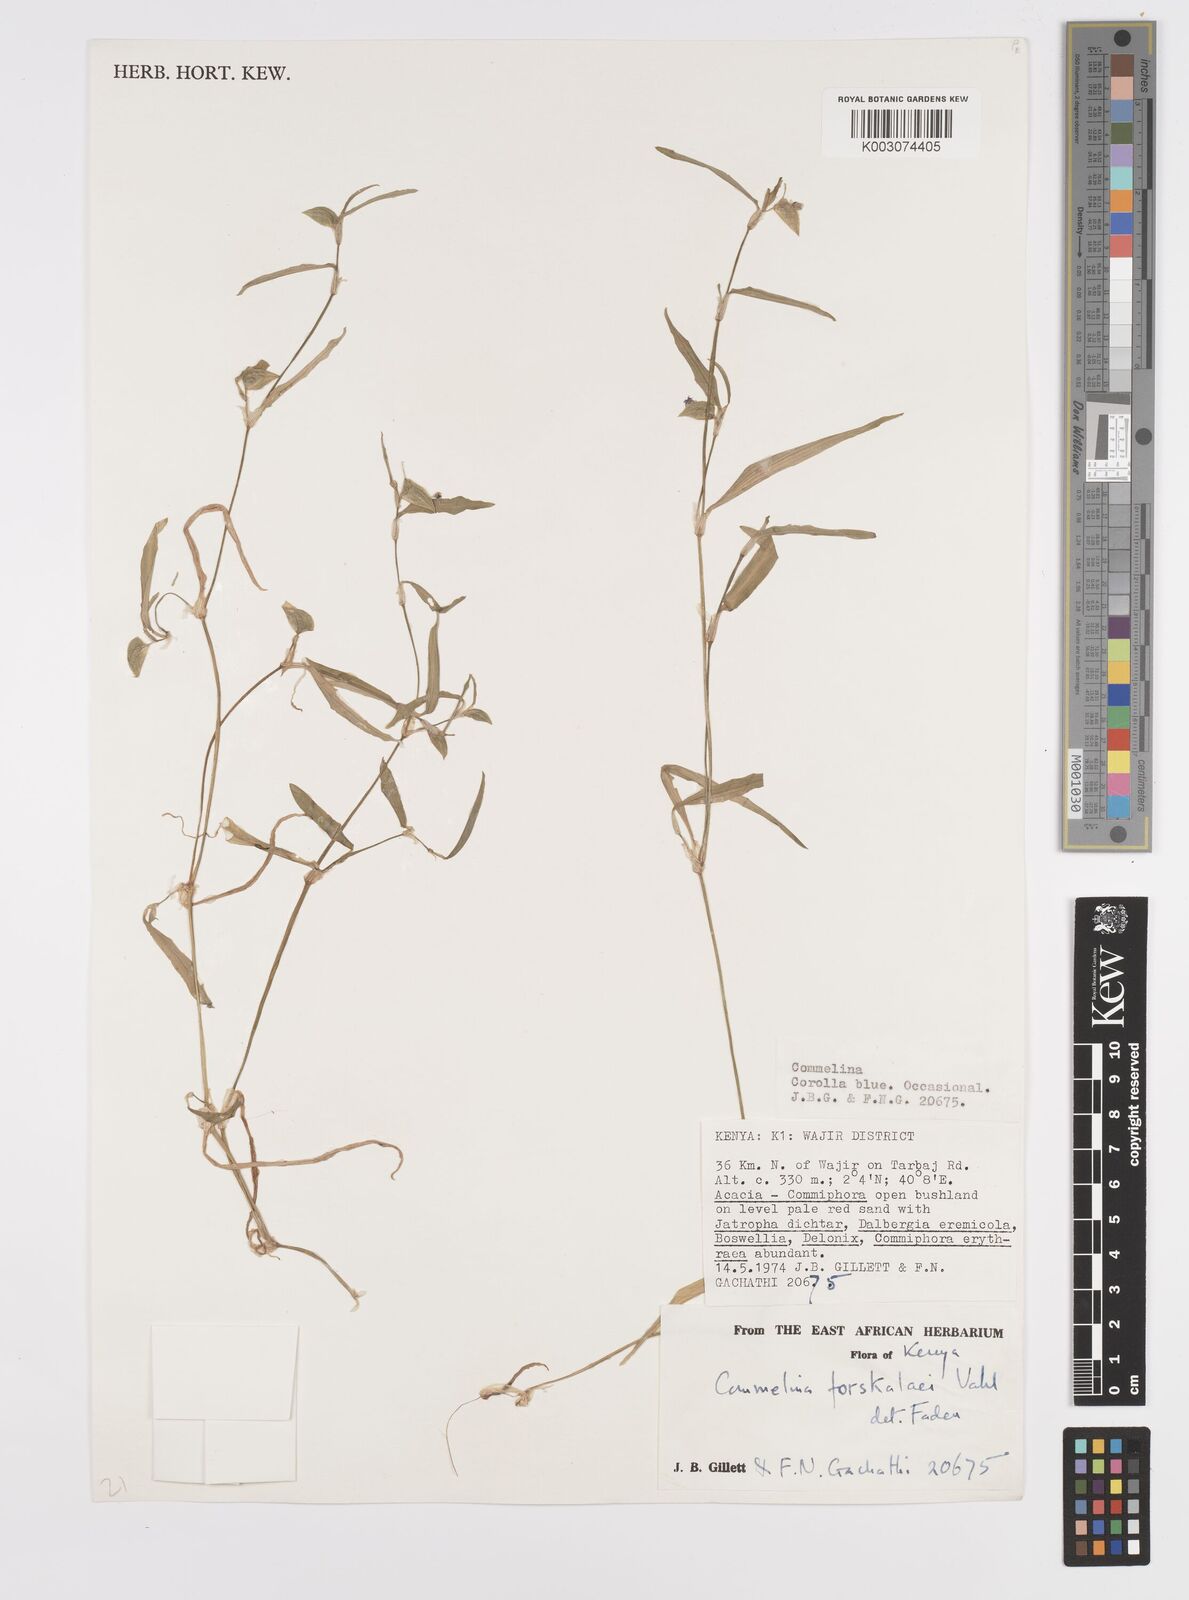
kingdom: Plantae
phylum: Tracheophyta
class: Liliopsida
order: Commelinales
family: Commelinaceae
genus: Commelina
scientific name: Commelina forskaolii
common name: Rat's ear
